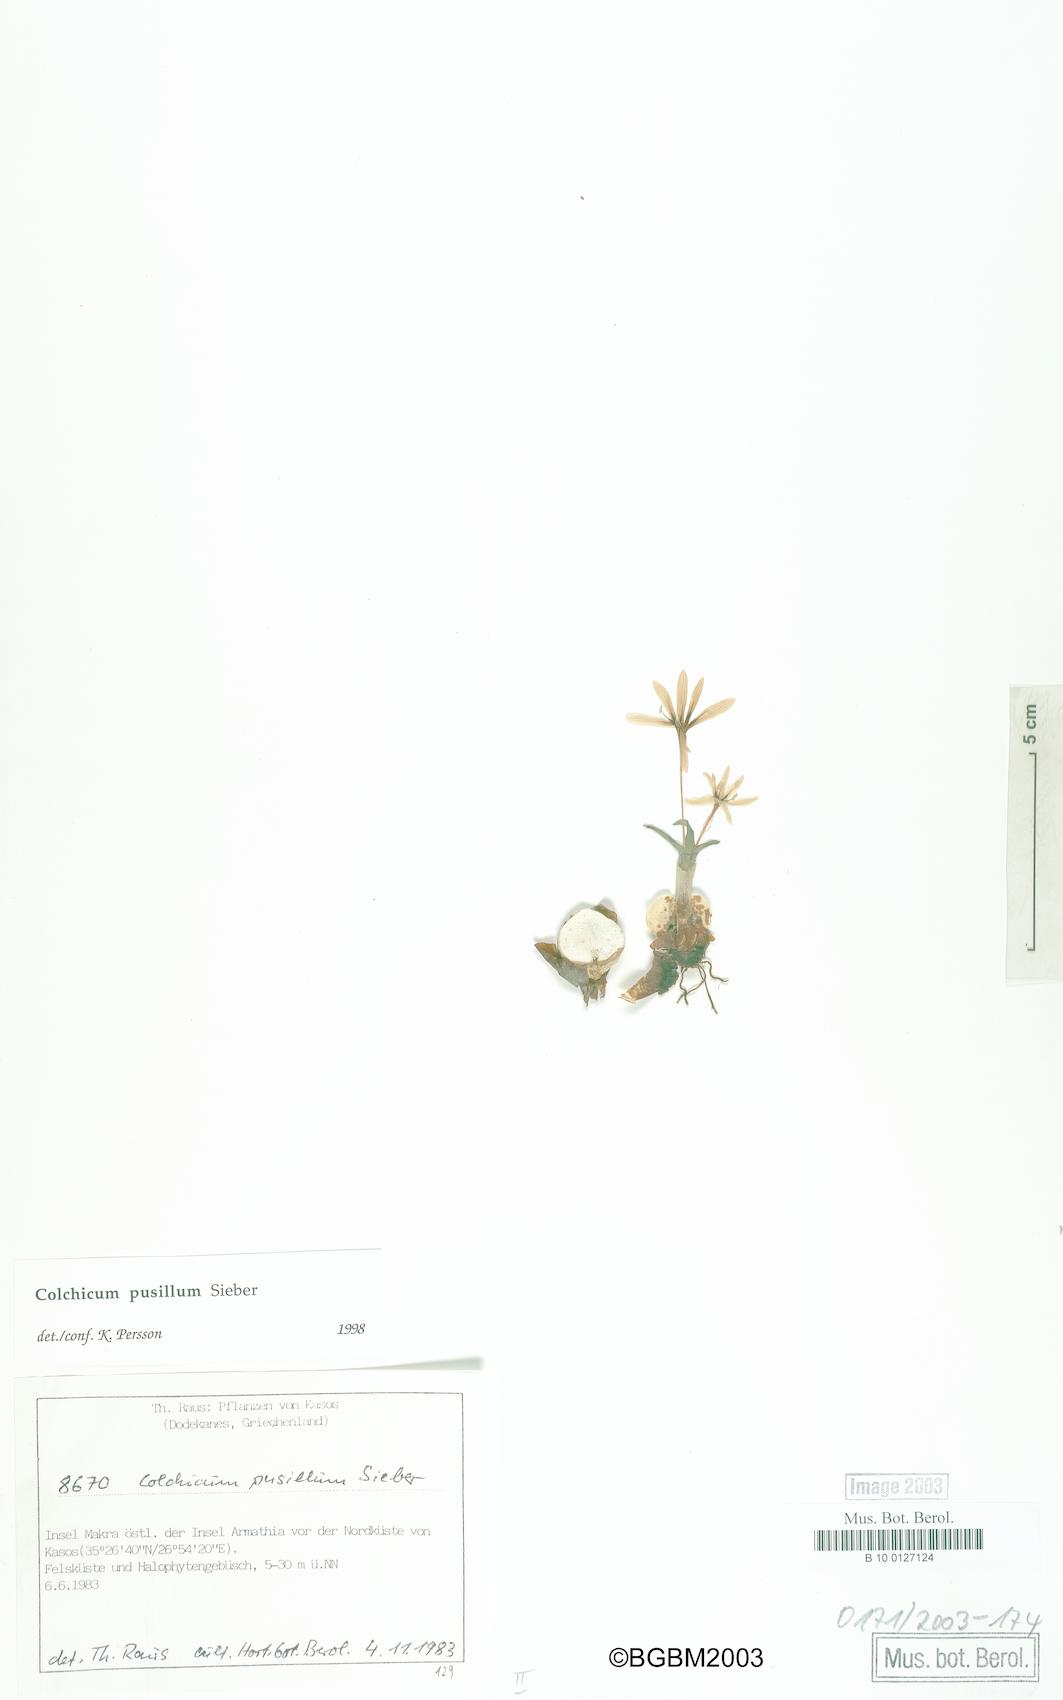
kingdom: Plantae
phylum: Tracheophyta
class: Liliopsida
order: Liliales
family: Colchicaceae
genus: Colchicum
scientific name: Colchicum pusillum
